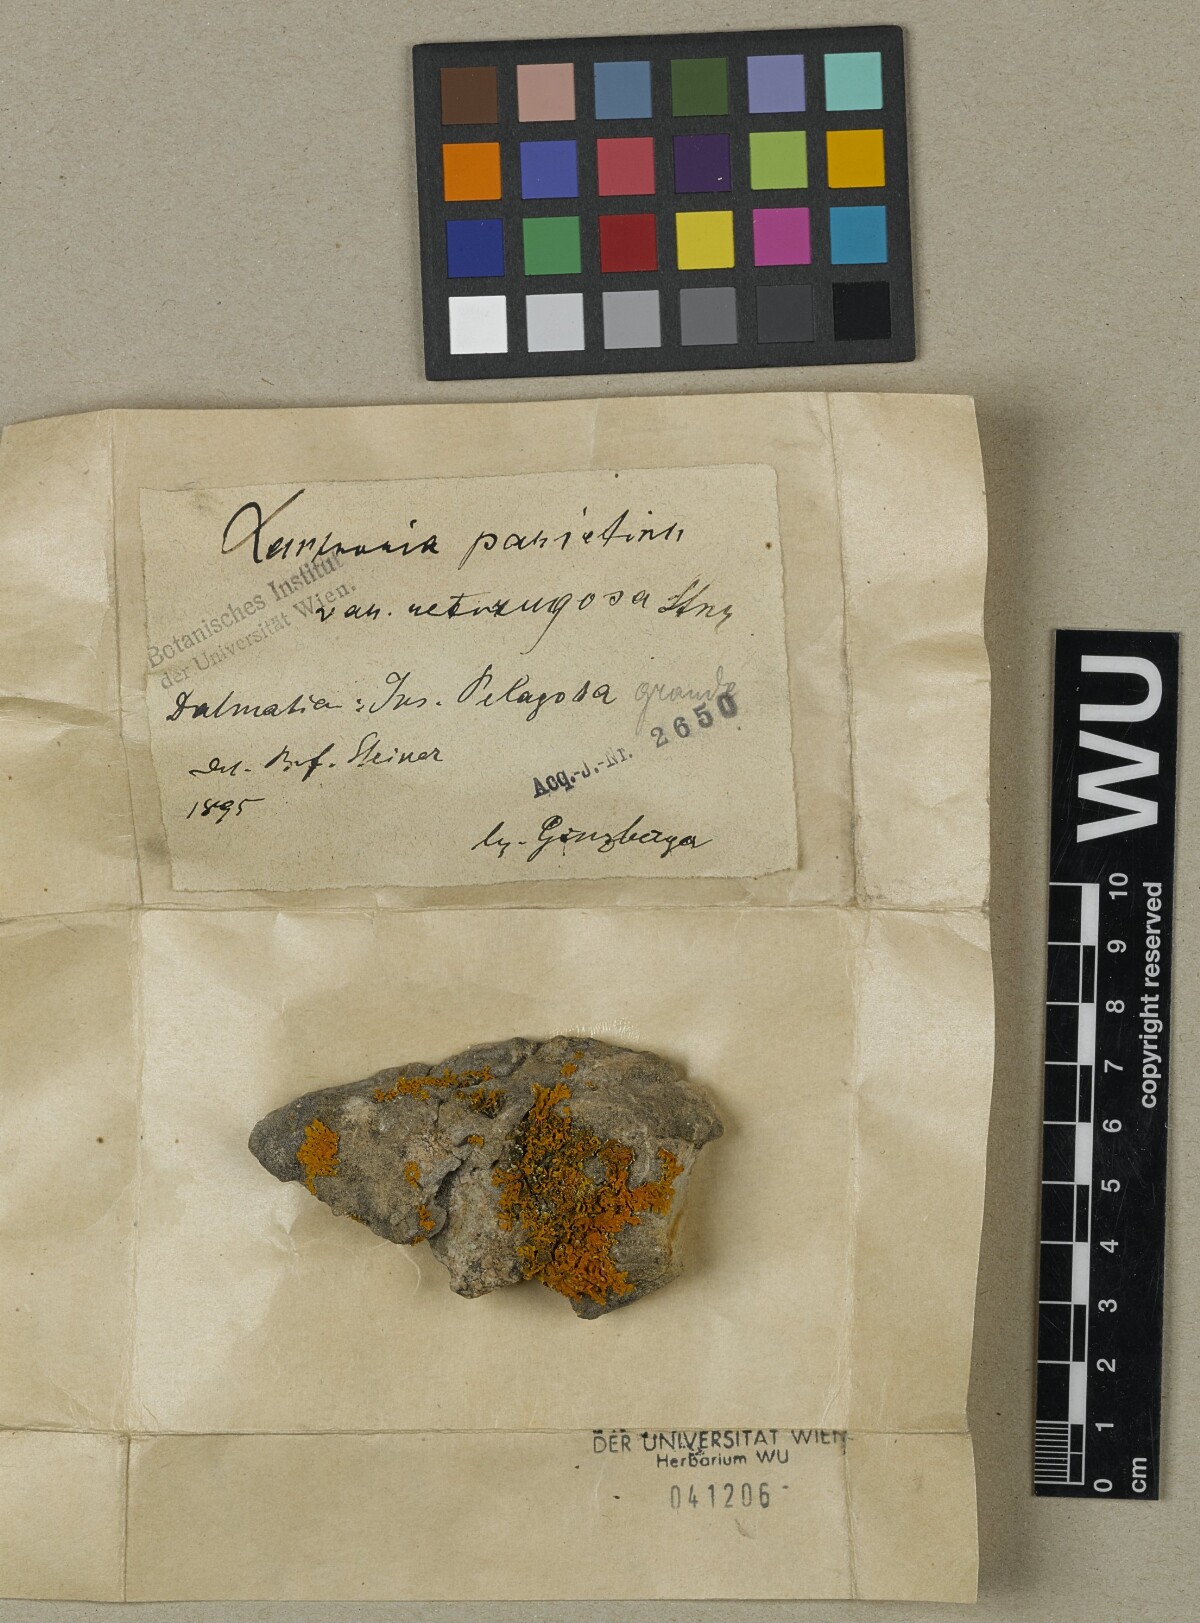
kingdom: Fungi
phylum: Ascomycota
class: Lecanoromycetes
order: Teloschistales
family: Teloschistaceae
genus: Xanthoria
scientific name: Xanthoria parietina
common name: Common orange lichen
